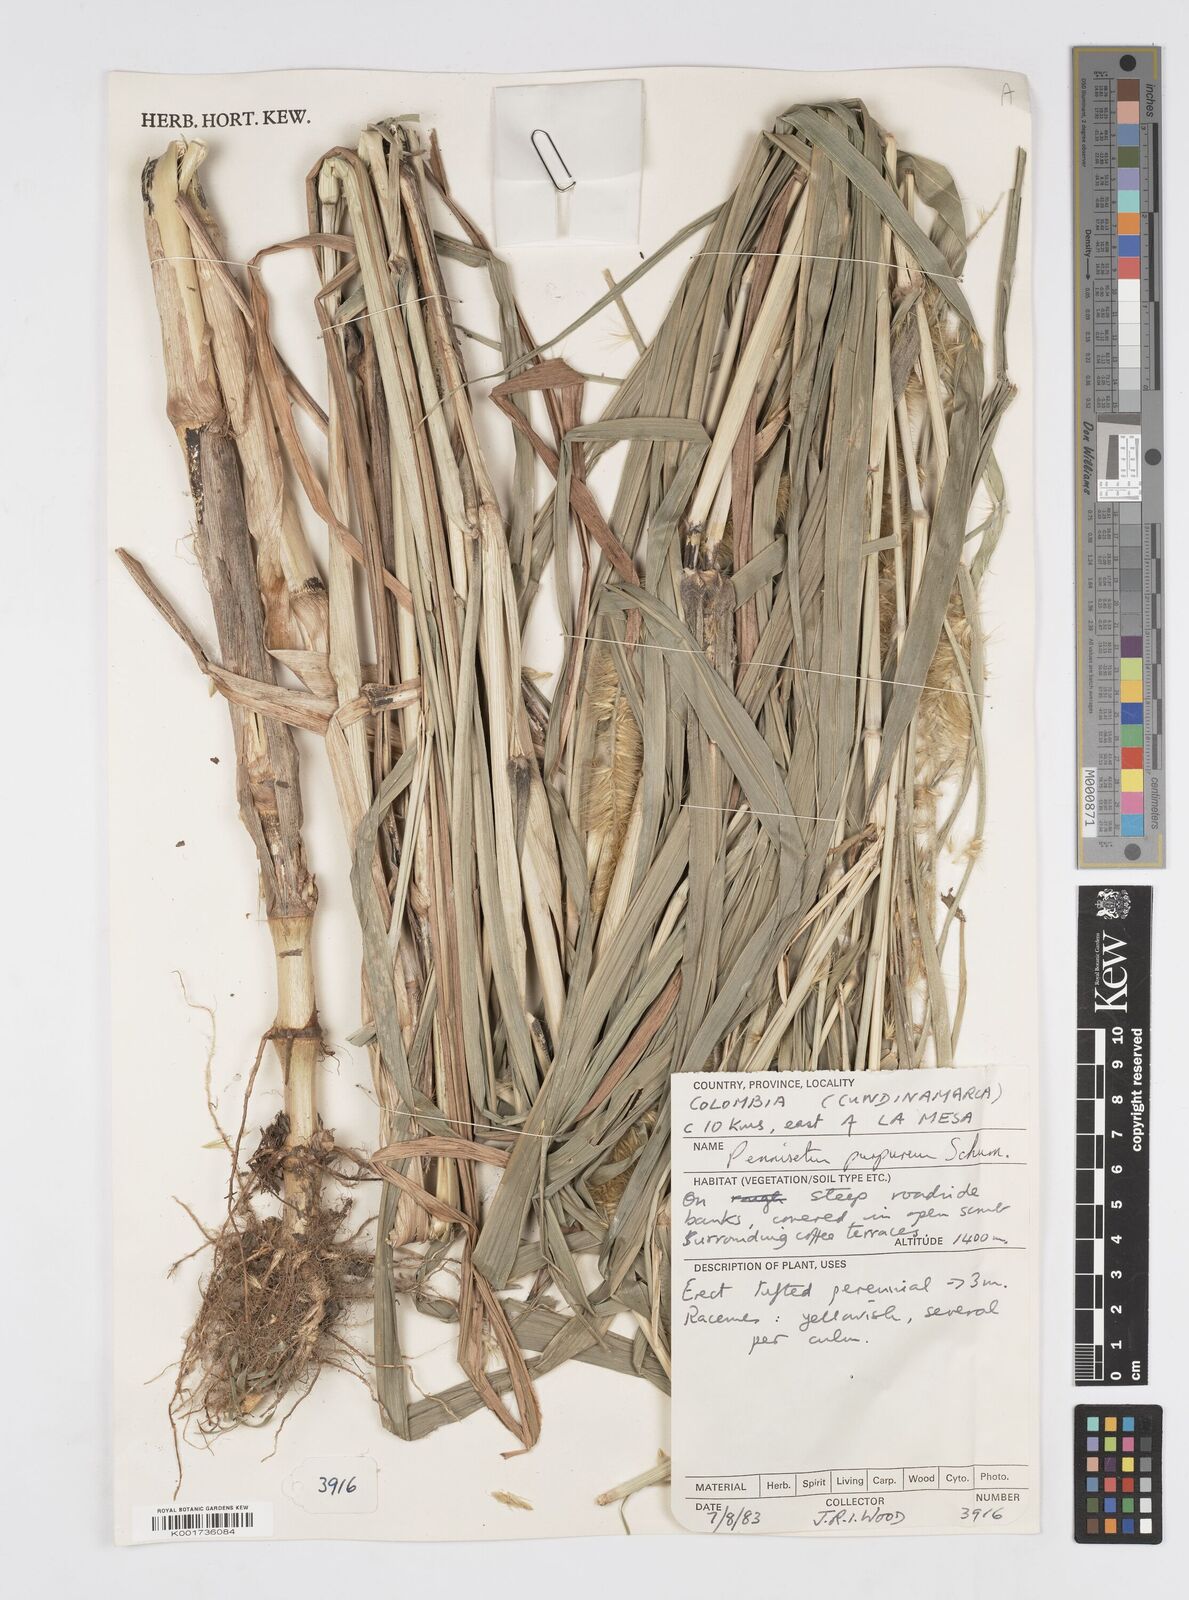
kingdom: Plantae
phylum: Tracheophyta
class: Liliopsida
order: Poales
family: Poaceae
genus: Cenchrus
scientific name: Cenchrus purpureus
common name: Elephant grass
